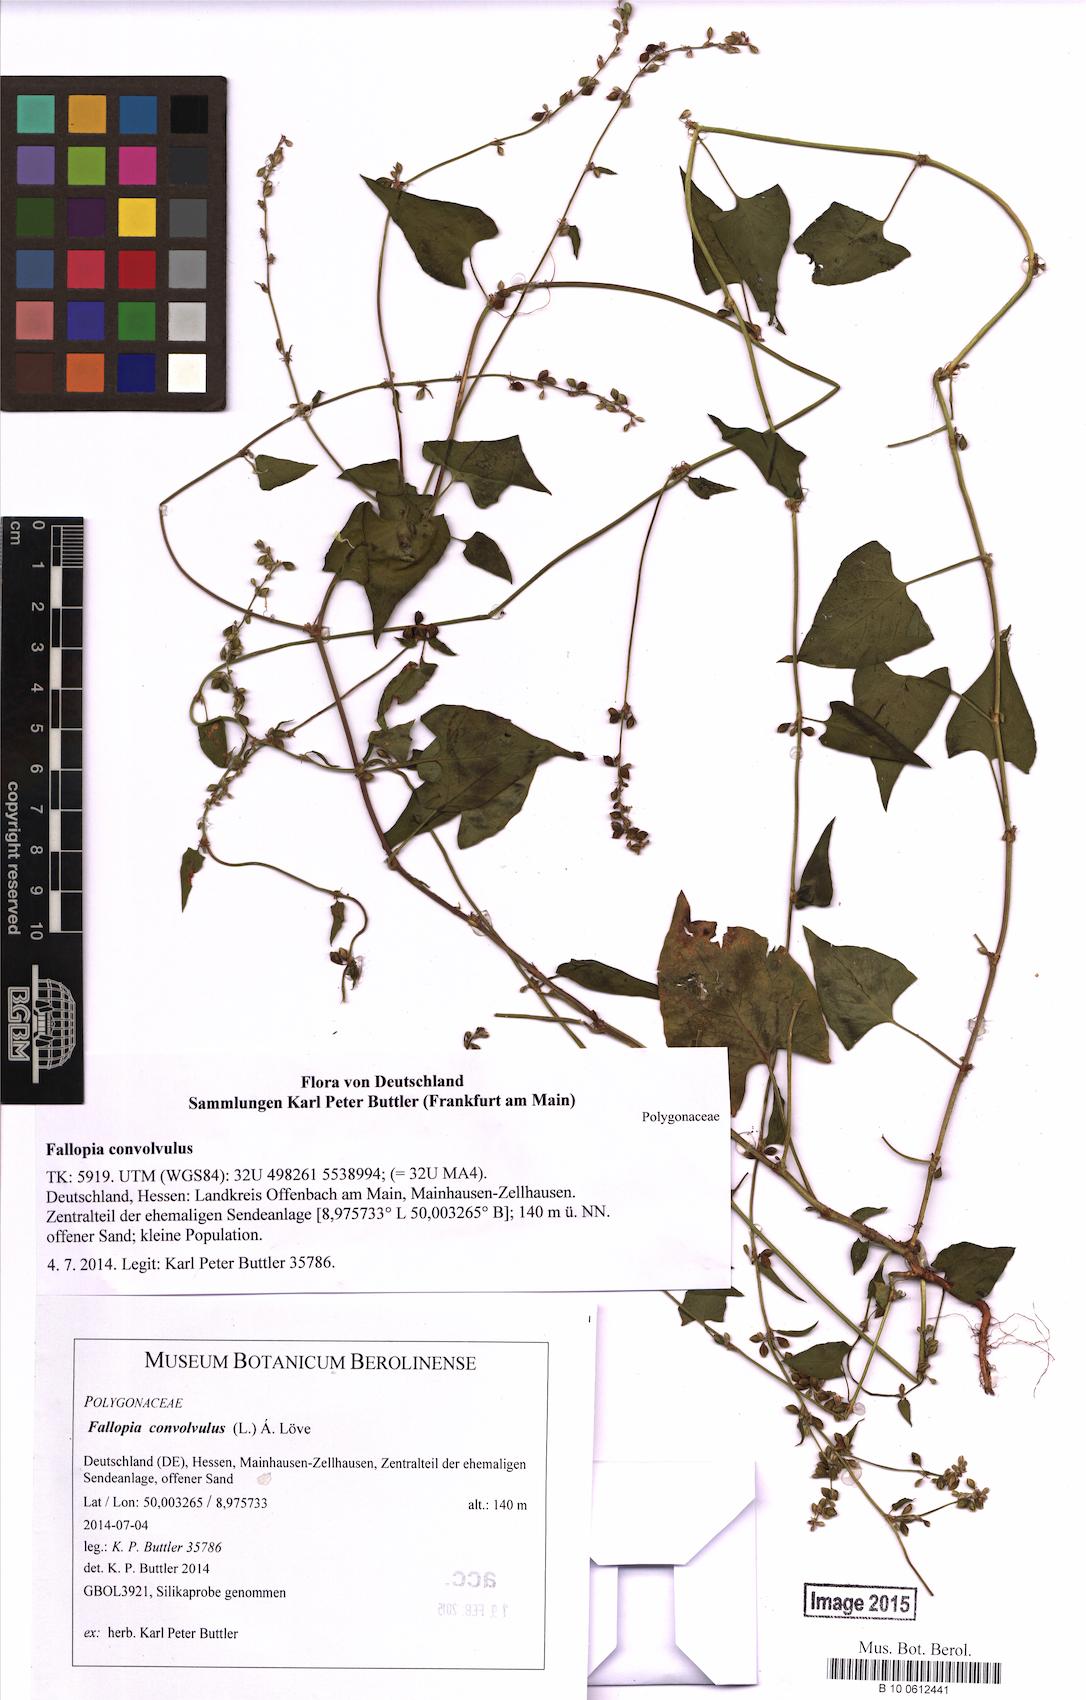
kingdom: Plantae
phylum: Tracheophyta
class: Magnoliopsida
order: Caryophyllales
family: Polygonaceae
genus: Fallopia
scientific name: Fallopia convolvulus
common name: Black bindweed
